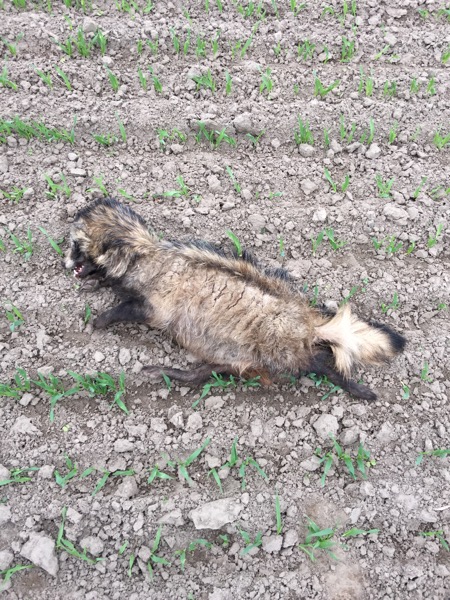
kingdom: Animalia
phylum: Chordata
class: Mammalia
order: Carnivora
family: Canidae
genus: Nyctereutes
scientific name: Nyctereutes procyonoides
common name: Raccoon dog
